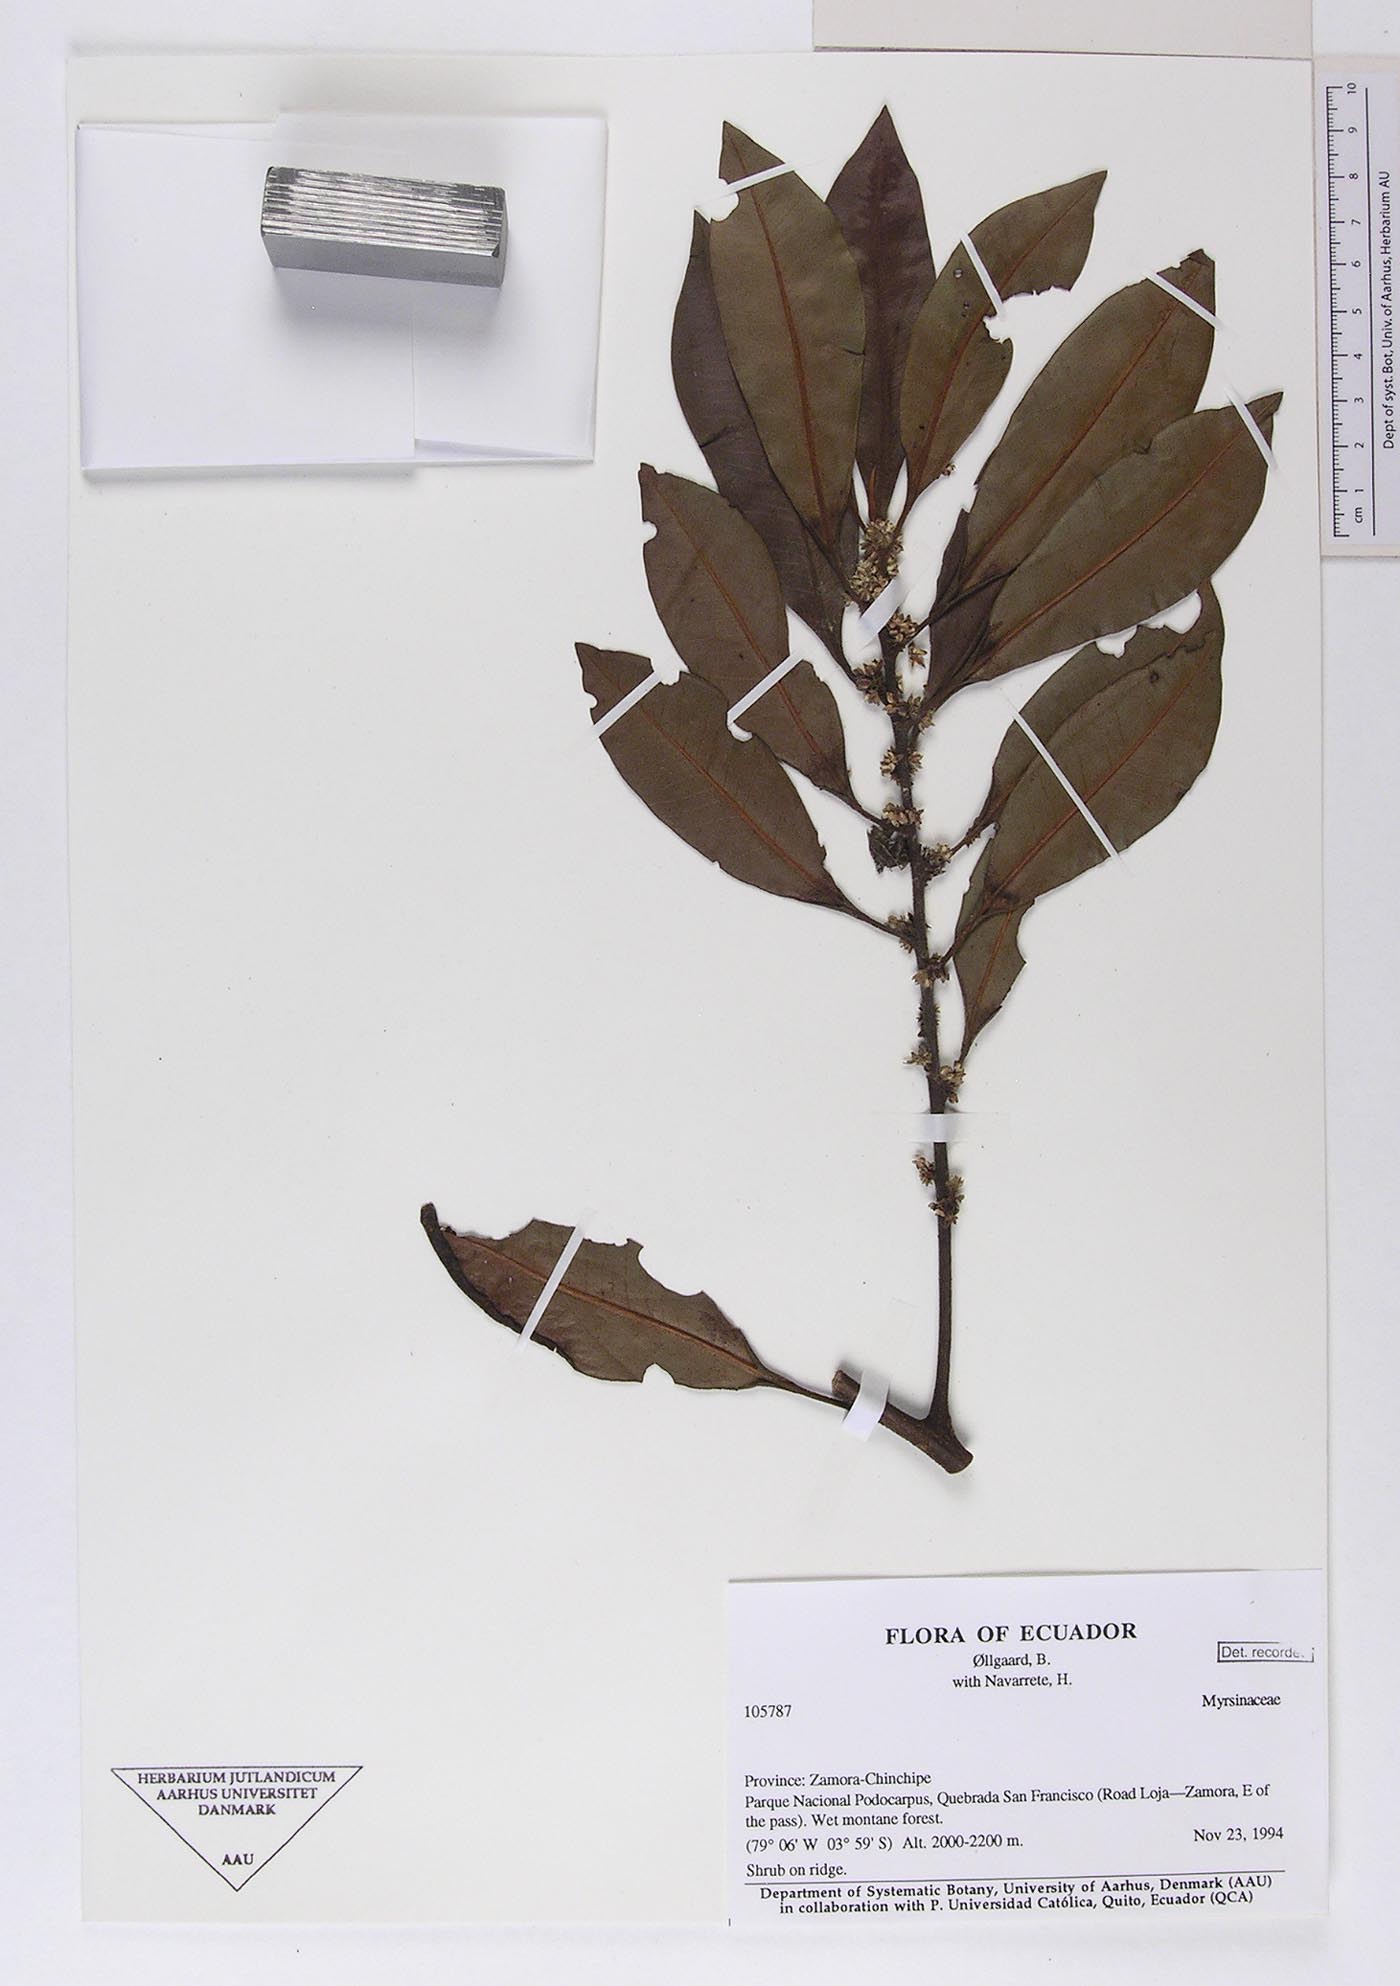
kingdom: Plantae
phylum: Tracheophyta
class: Magnoliopsida
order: Ericales
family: Primulaceae
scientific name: Primulaceae
